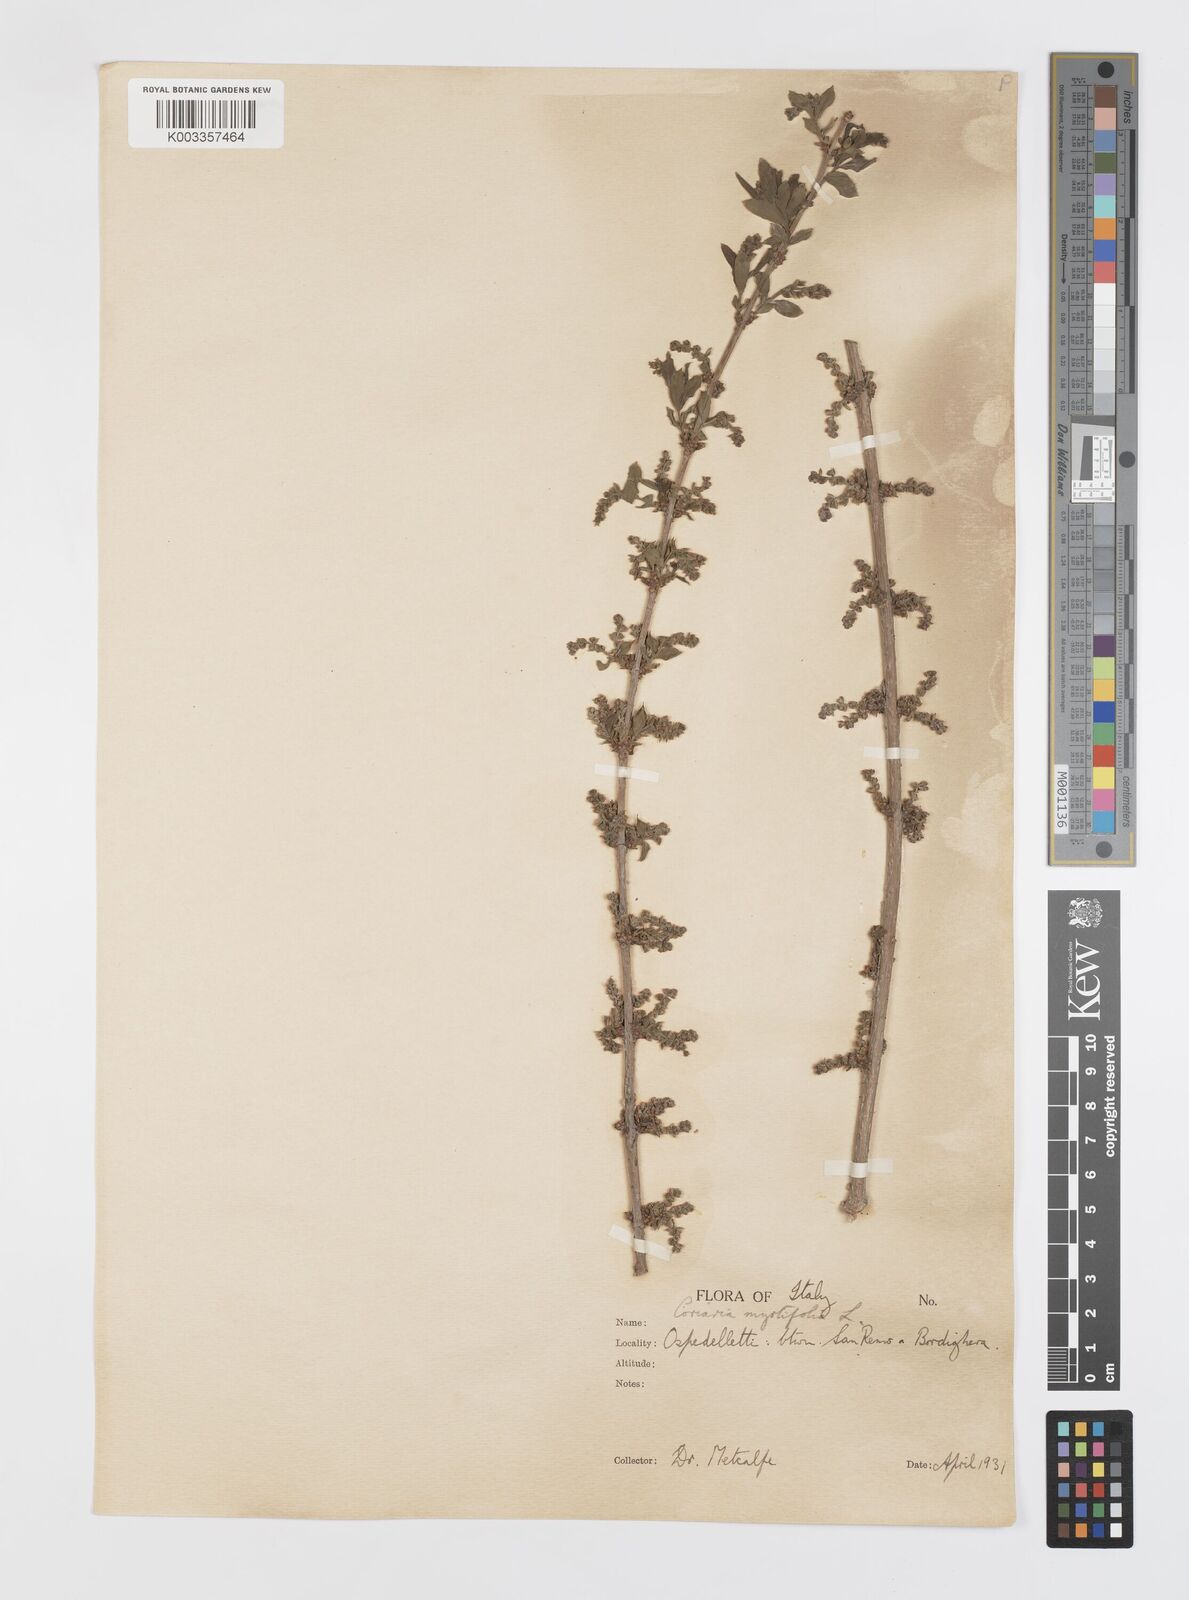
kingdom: Plantae
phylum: Tracheophyta
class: Magnoliopsida
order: Cucurbitales
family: Coriariaceae
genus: Coriaria
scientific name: Coriaria myrtifolia
